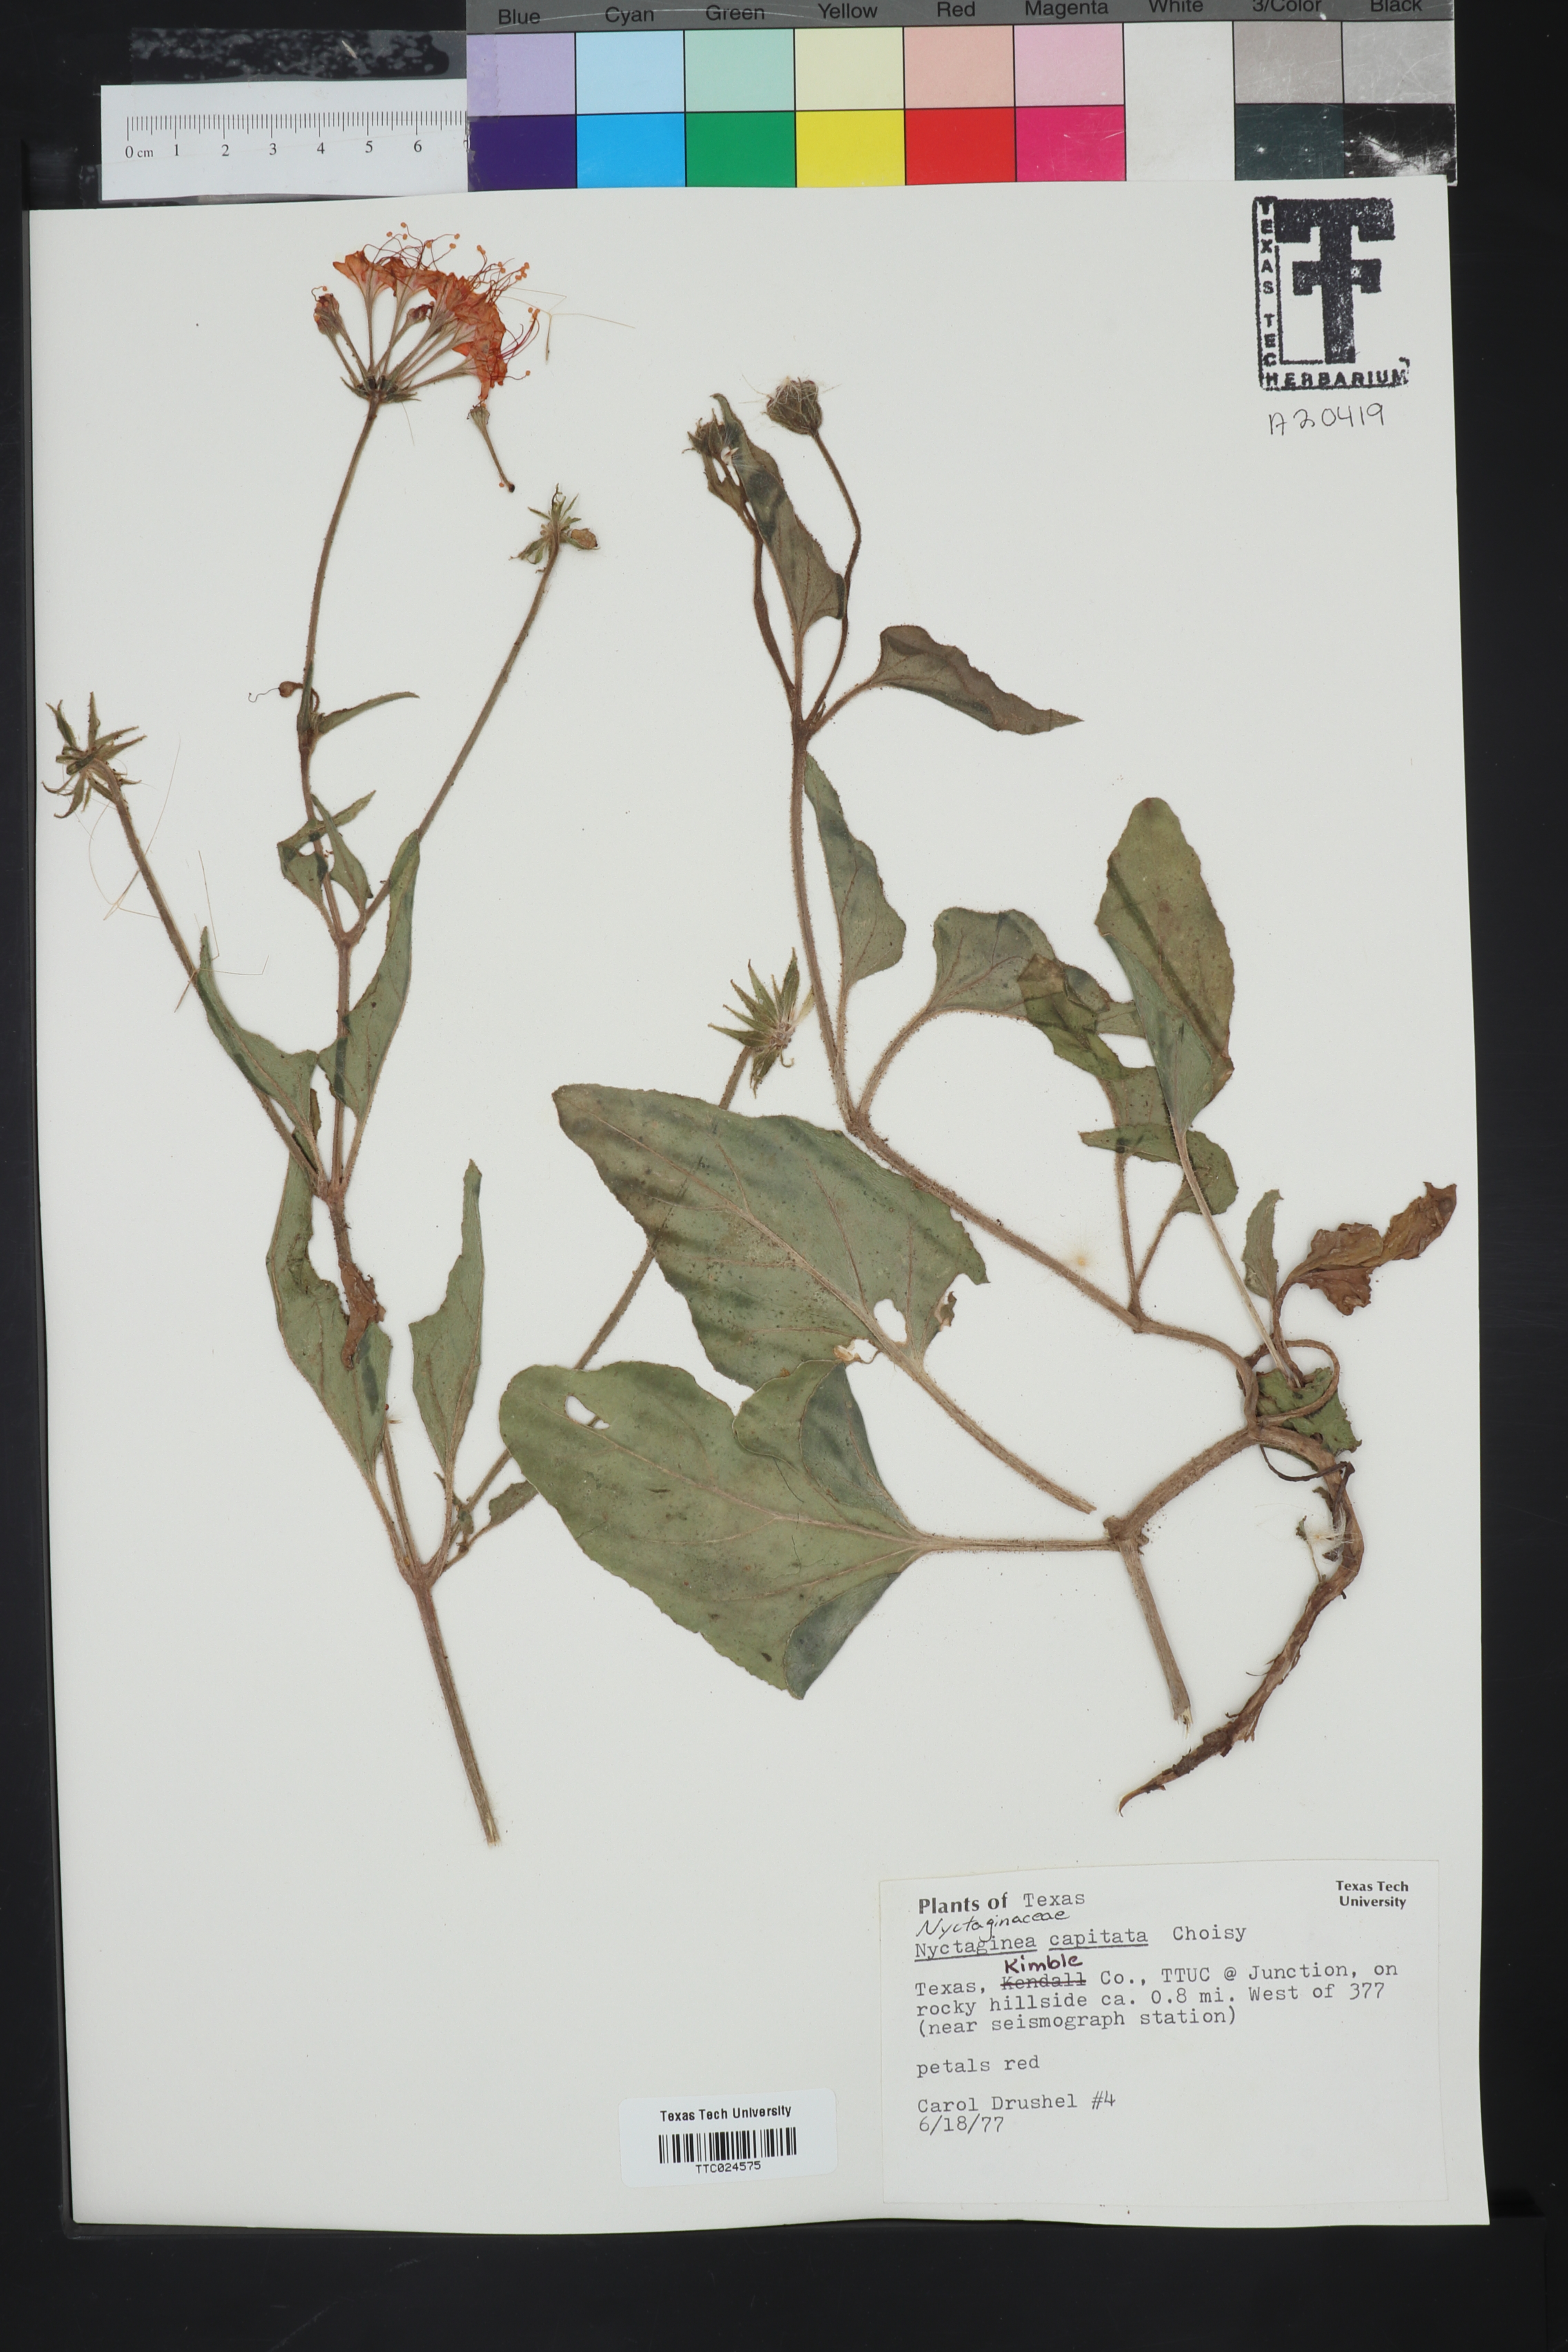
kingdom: Plantae
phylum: Tracheophyta
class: Magnoliopsida
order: Caryophyllales
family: Nyctaginaceae
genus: Nyctaginia
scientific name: Nyctaginia capitata
